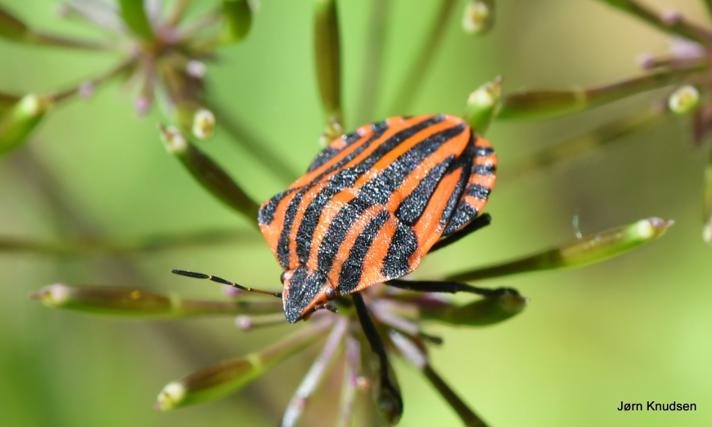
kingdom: Animalia
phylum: Arthropoda
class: Insecta
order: Hemiptera
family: Pentatomidae
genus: Graphosoma
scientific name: Graphosoma italicum
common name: Stribetæge
